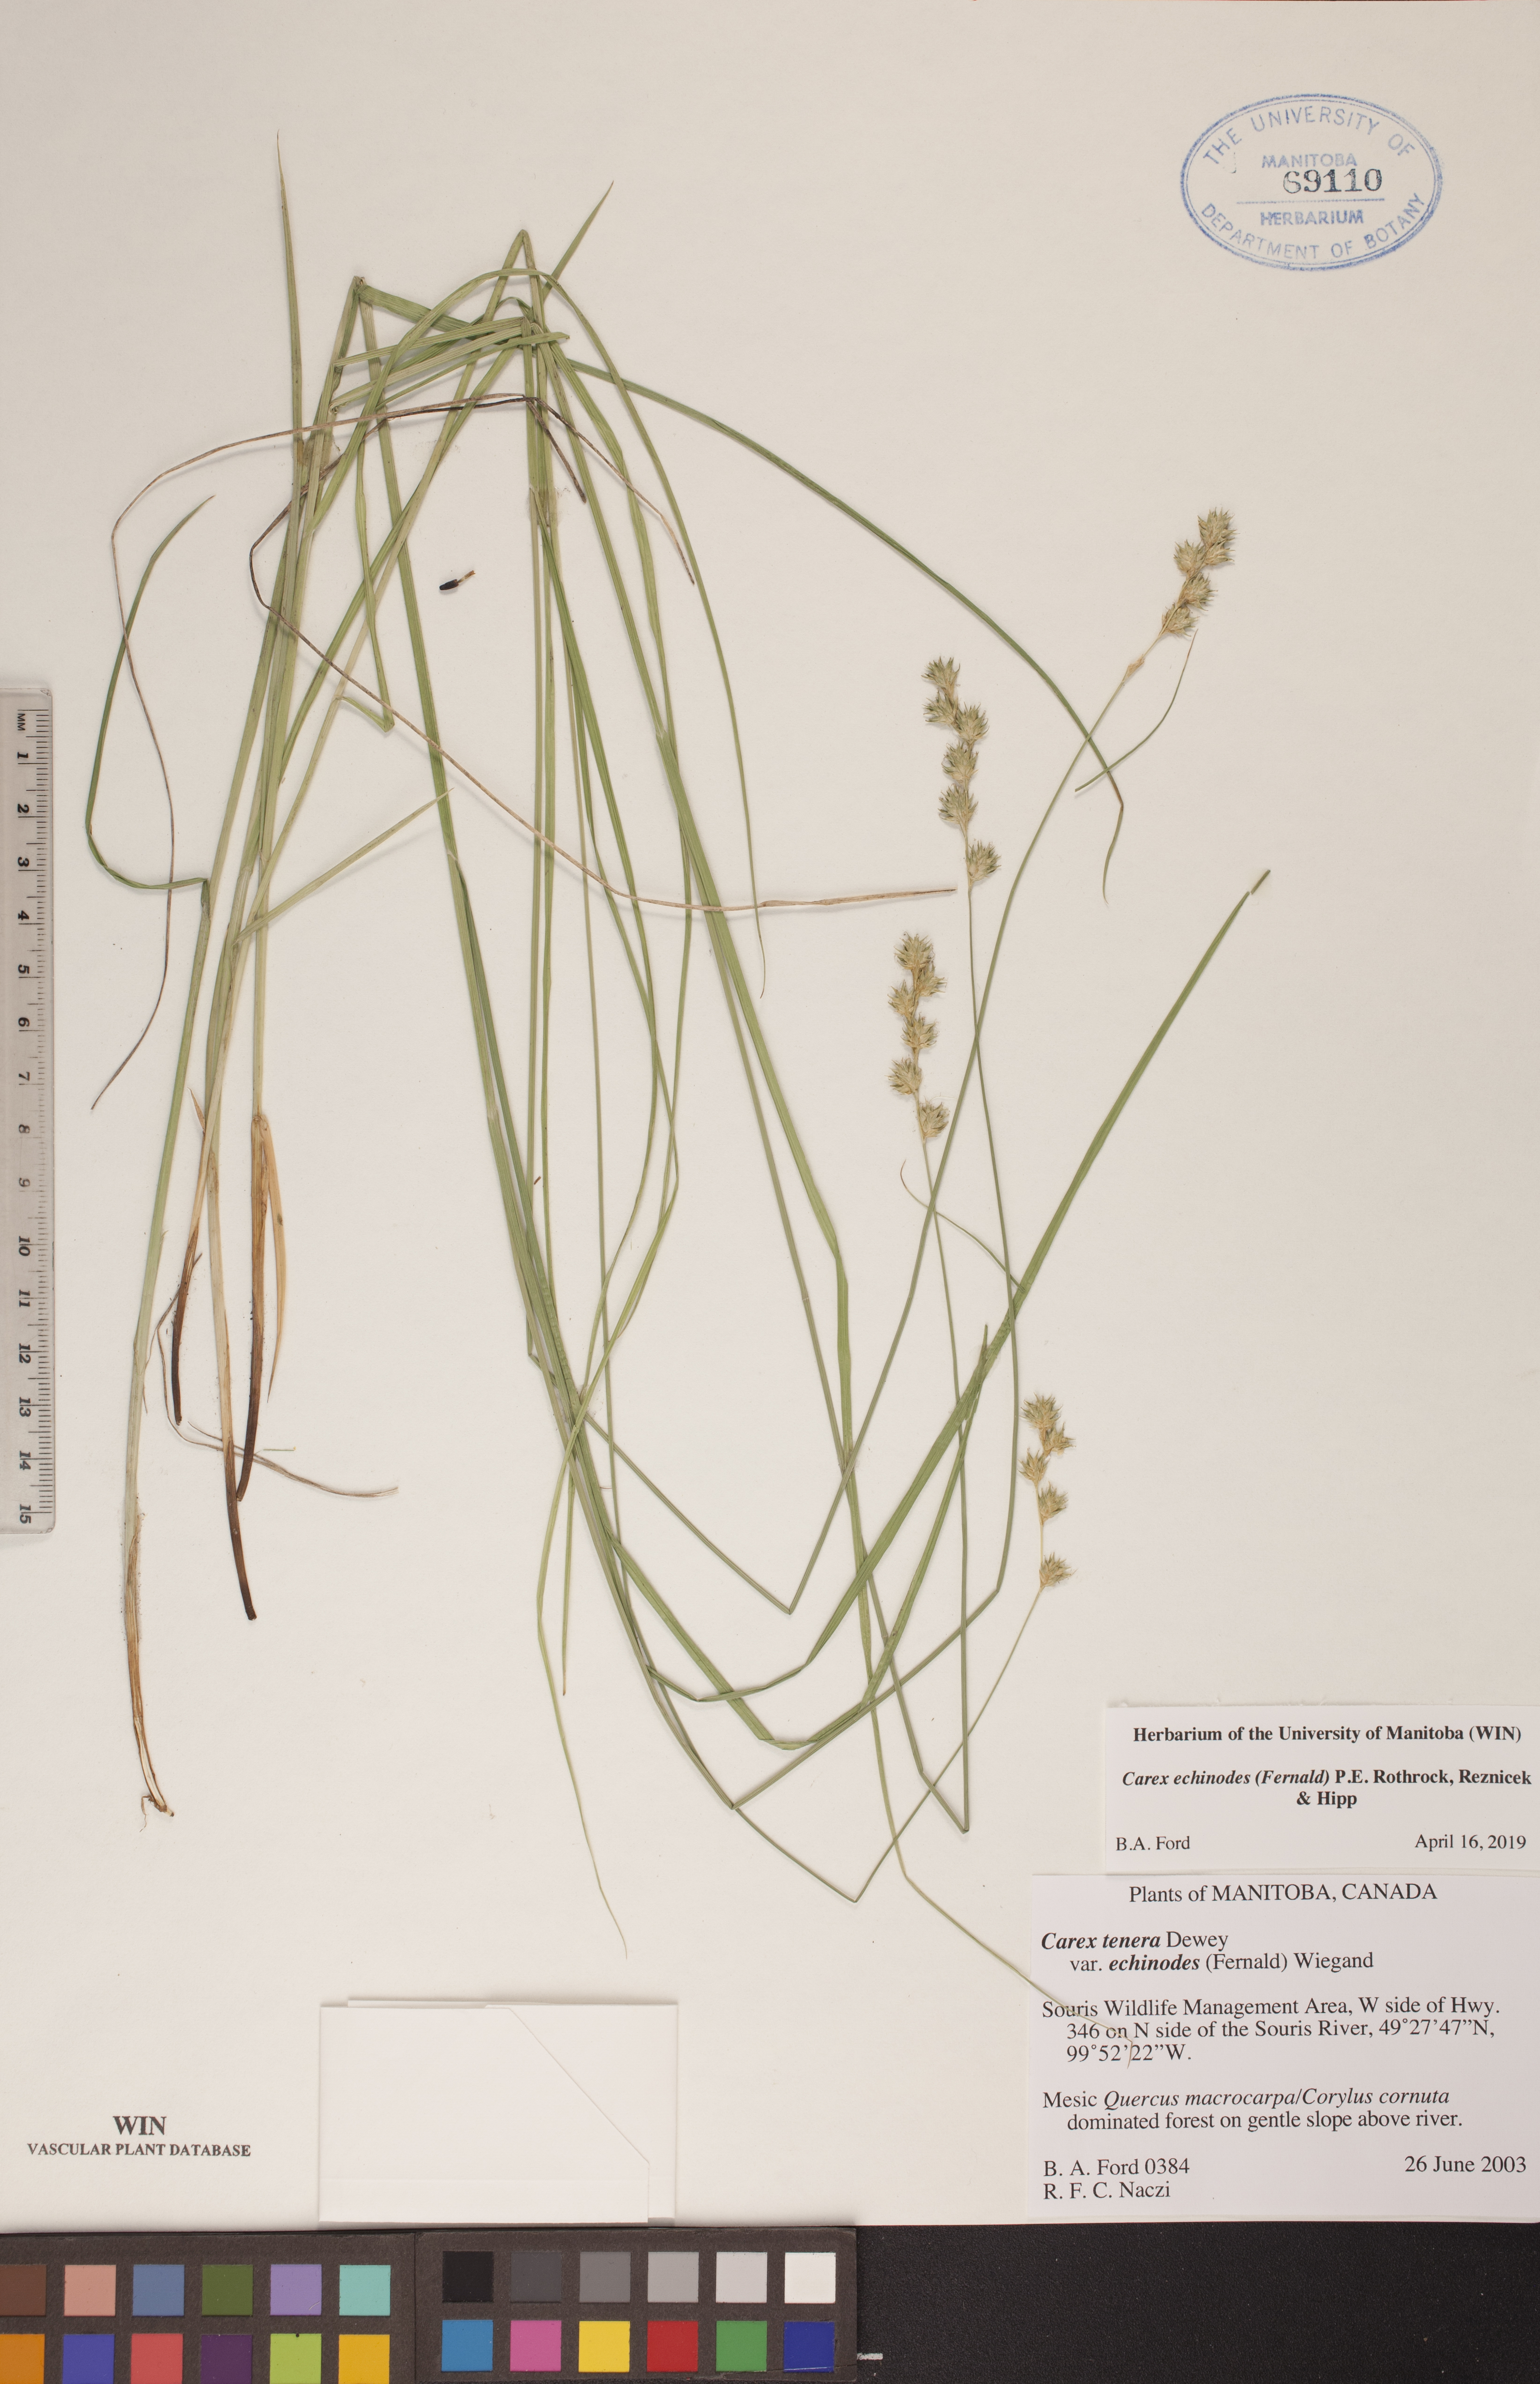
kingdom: Plantae
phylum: Tracheophyta
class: Liliopsida
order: Poales
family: Cyperaceae
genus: Carex
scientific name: Carex echinodes
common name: Marsh straw sedge
